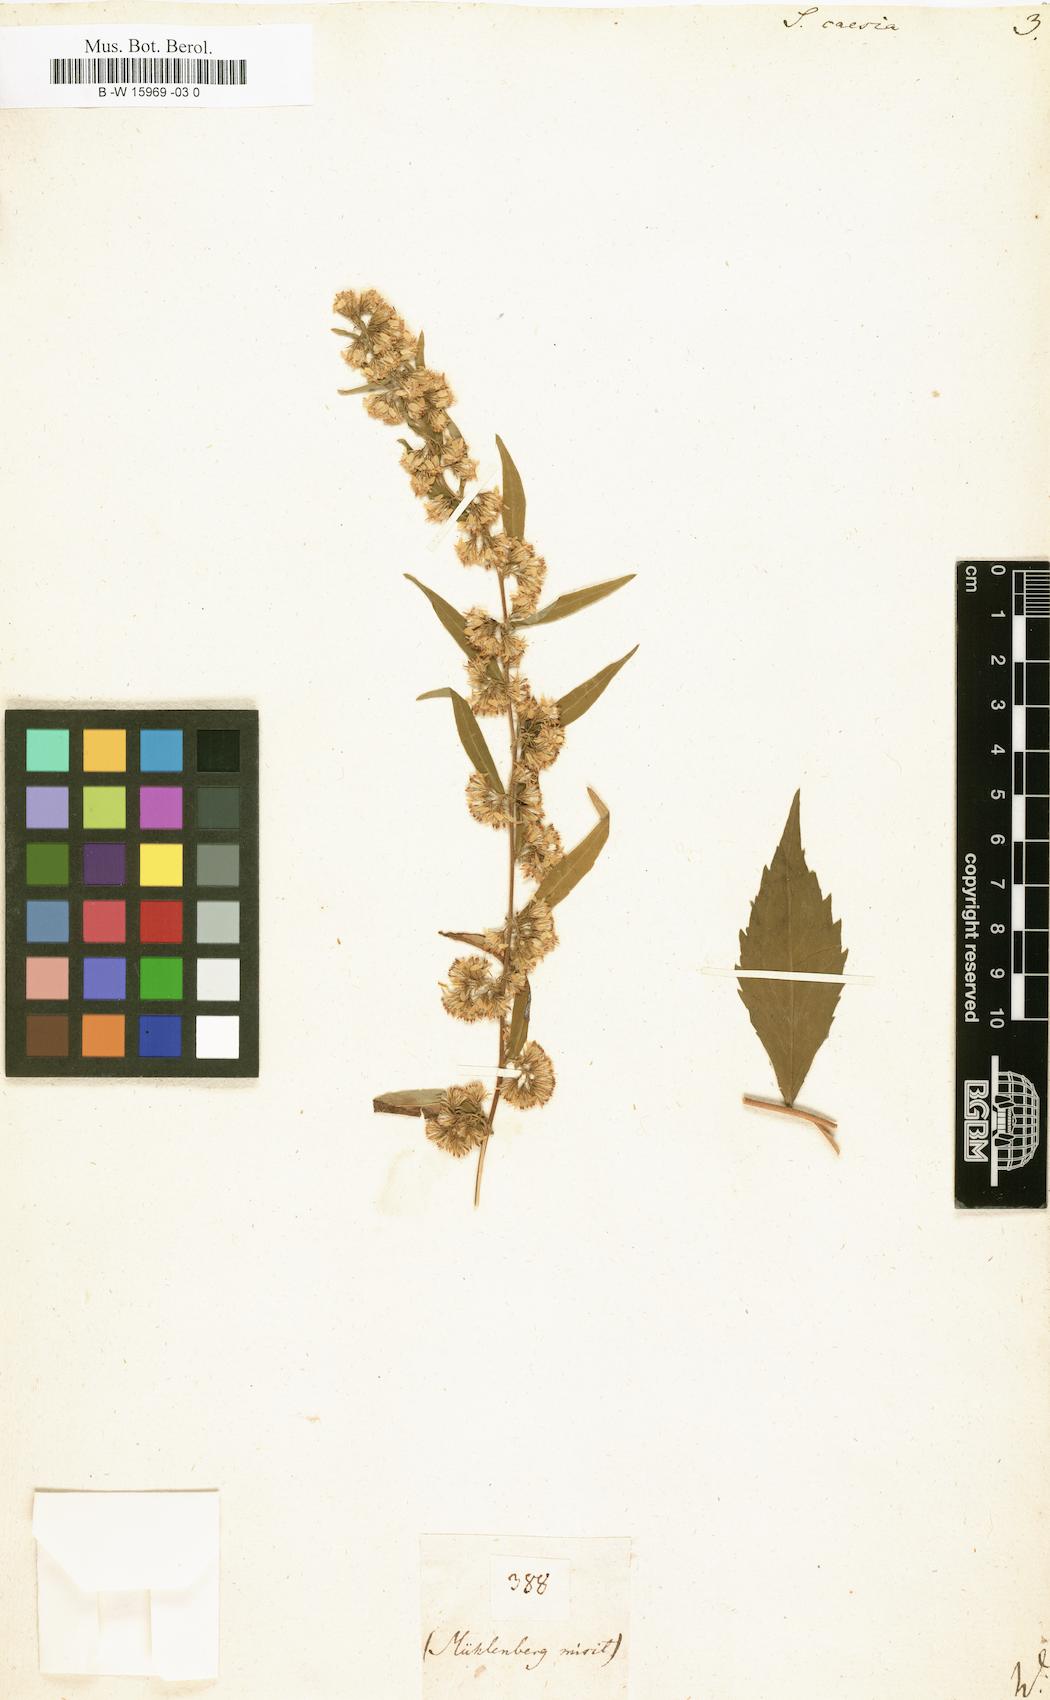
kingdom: Plantae
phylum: Tracheophyta
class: Magnoliopsida
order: Asterales
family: Asteraceae
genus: Solidago
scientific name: Solidago caesia
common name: Woodland goldenrod
